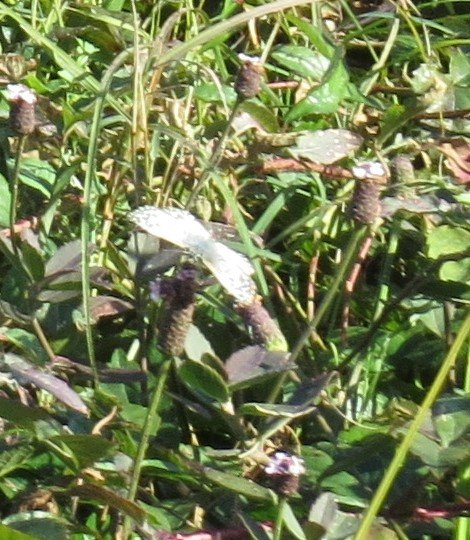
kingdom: Animalia
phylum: Arthropoda
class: Insecta
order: Lepidoptera
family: Hesperiidae
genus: Pyrgus
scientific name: Pyrgus communis
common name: White Checkered-Skipper
